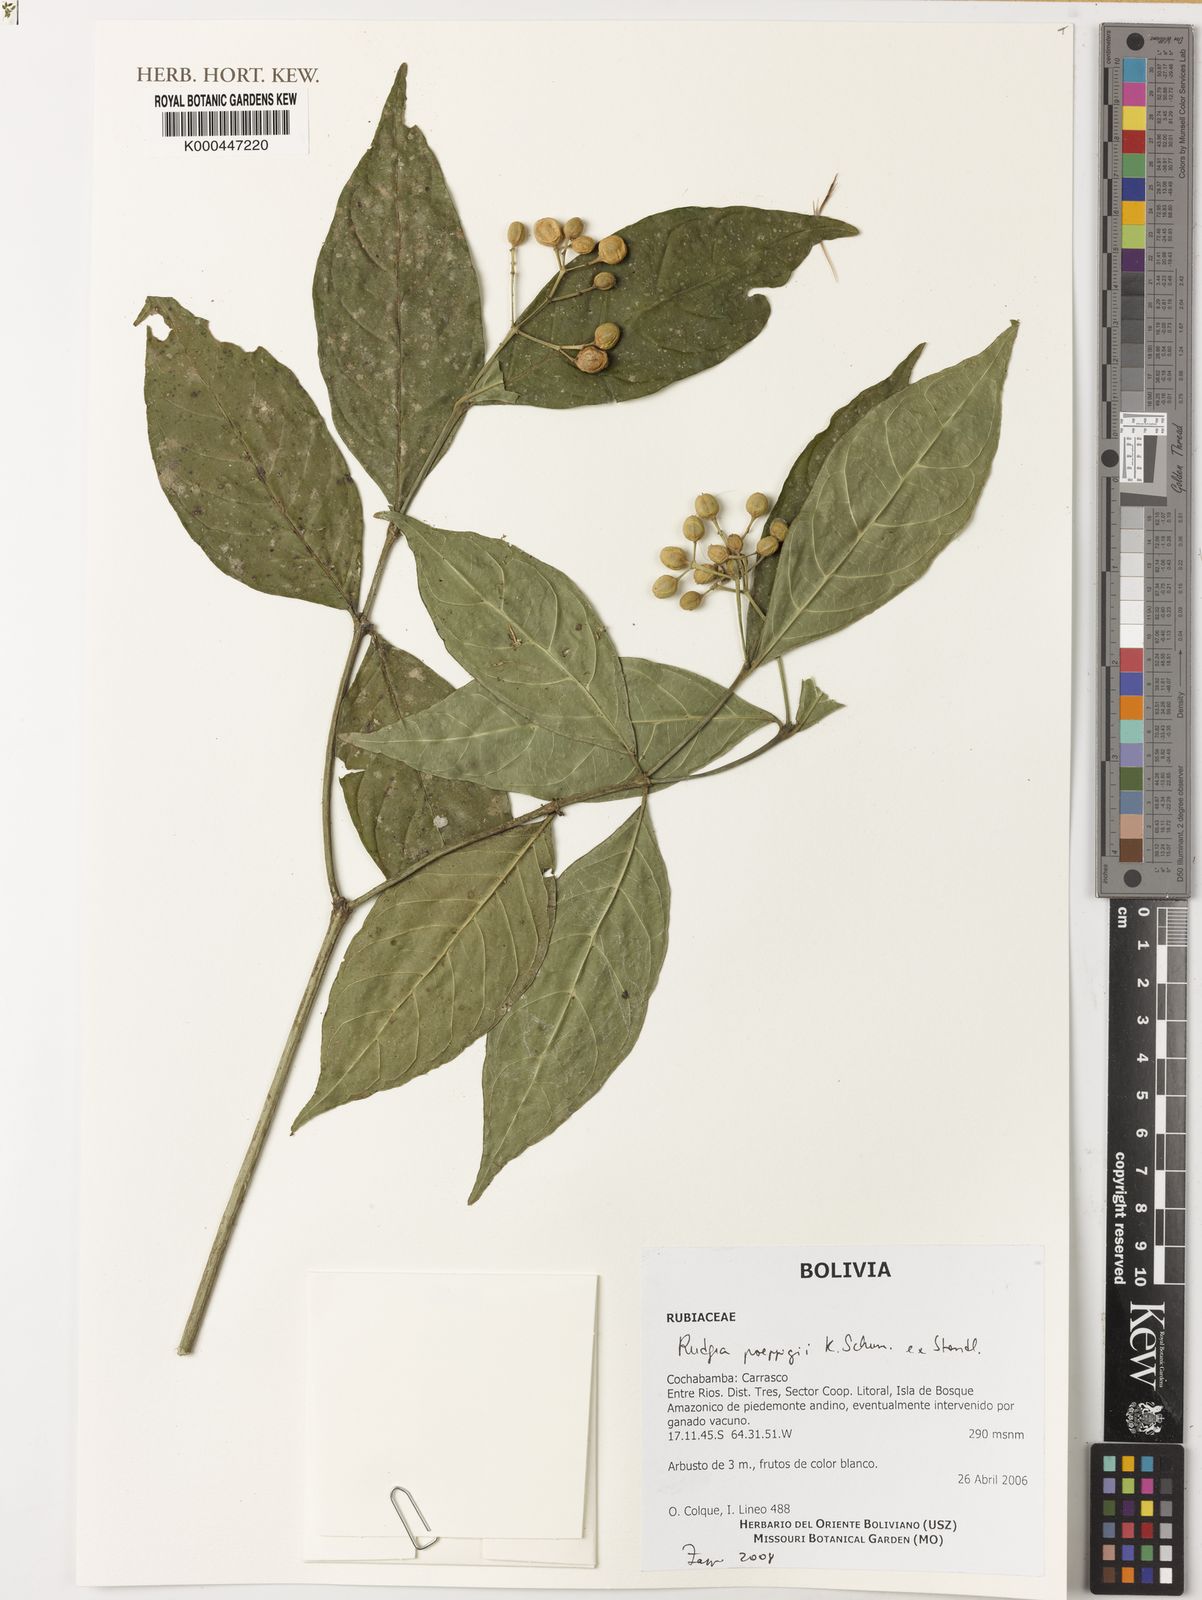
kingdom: Plantae
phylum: Tracheophyta
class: Magnoliopsida
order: Gentianales
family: Rubiaceae
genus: Rudgea
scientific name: Rudgea poeppigii
